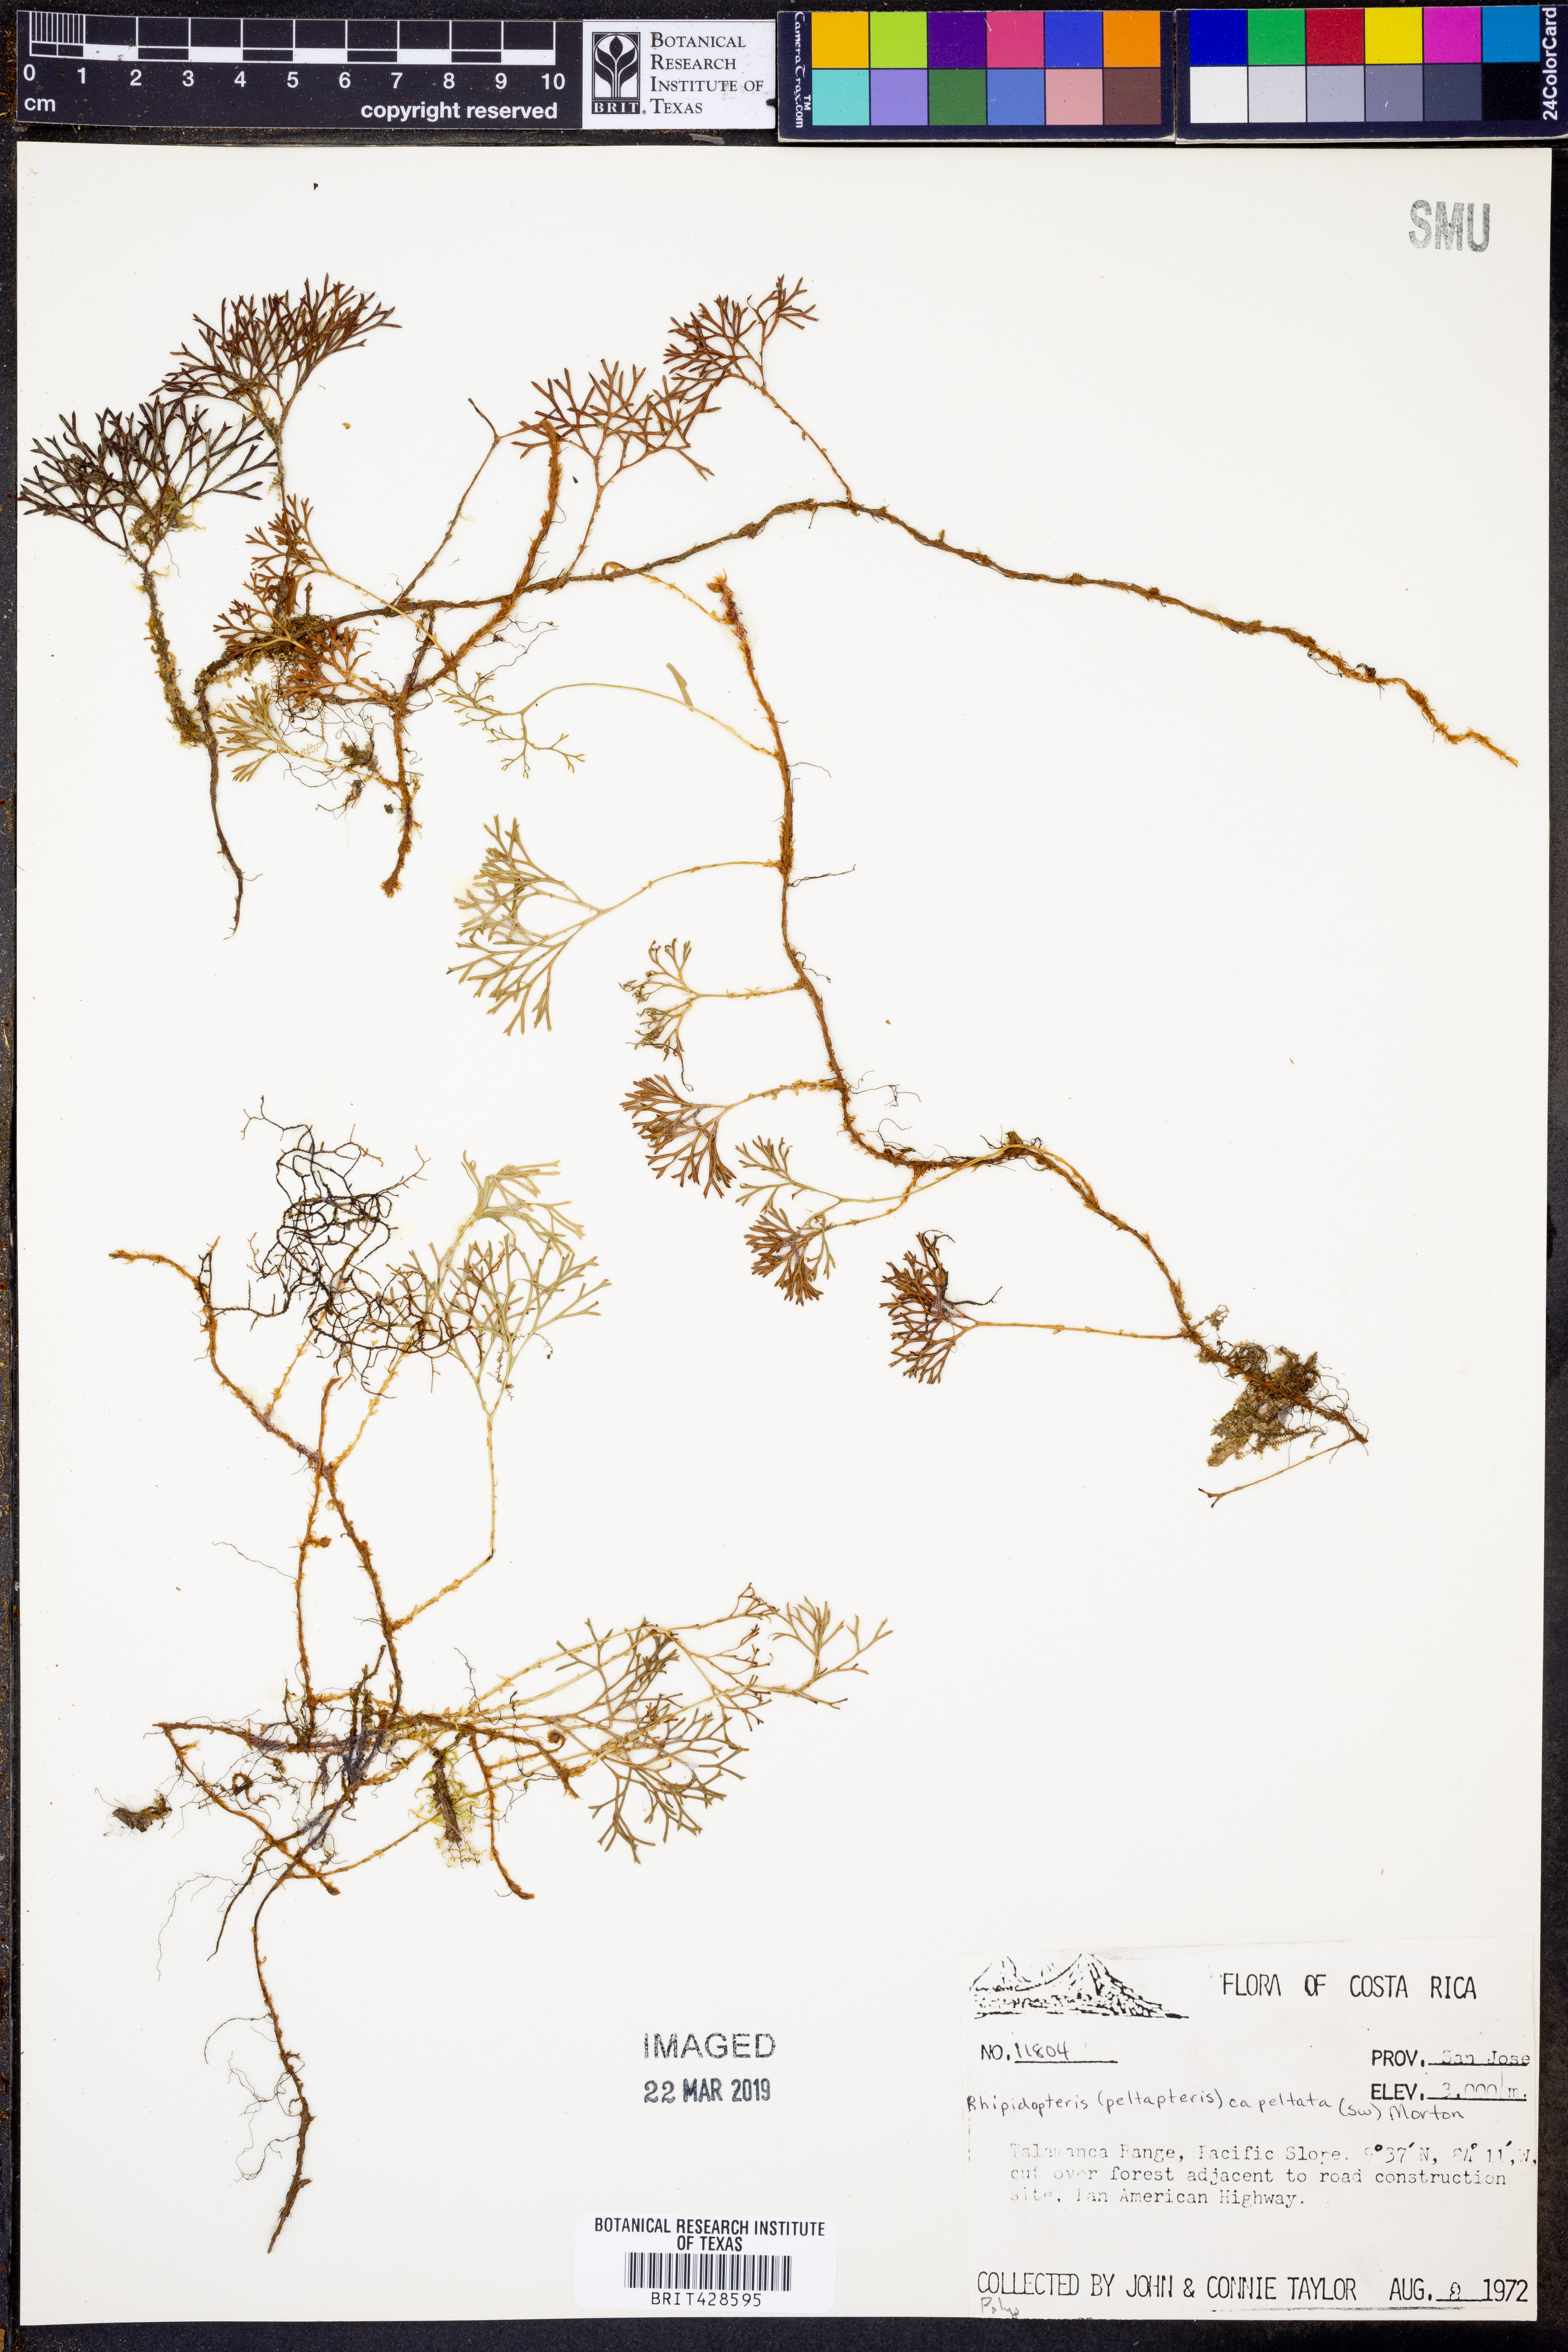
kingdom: Plantae
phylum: Tracheophyta
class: Polypodiopsida
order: Polypodiales
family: Dryopteridaceae
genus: Elaphoglossum
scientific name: Elaphoglossum
